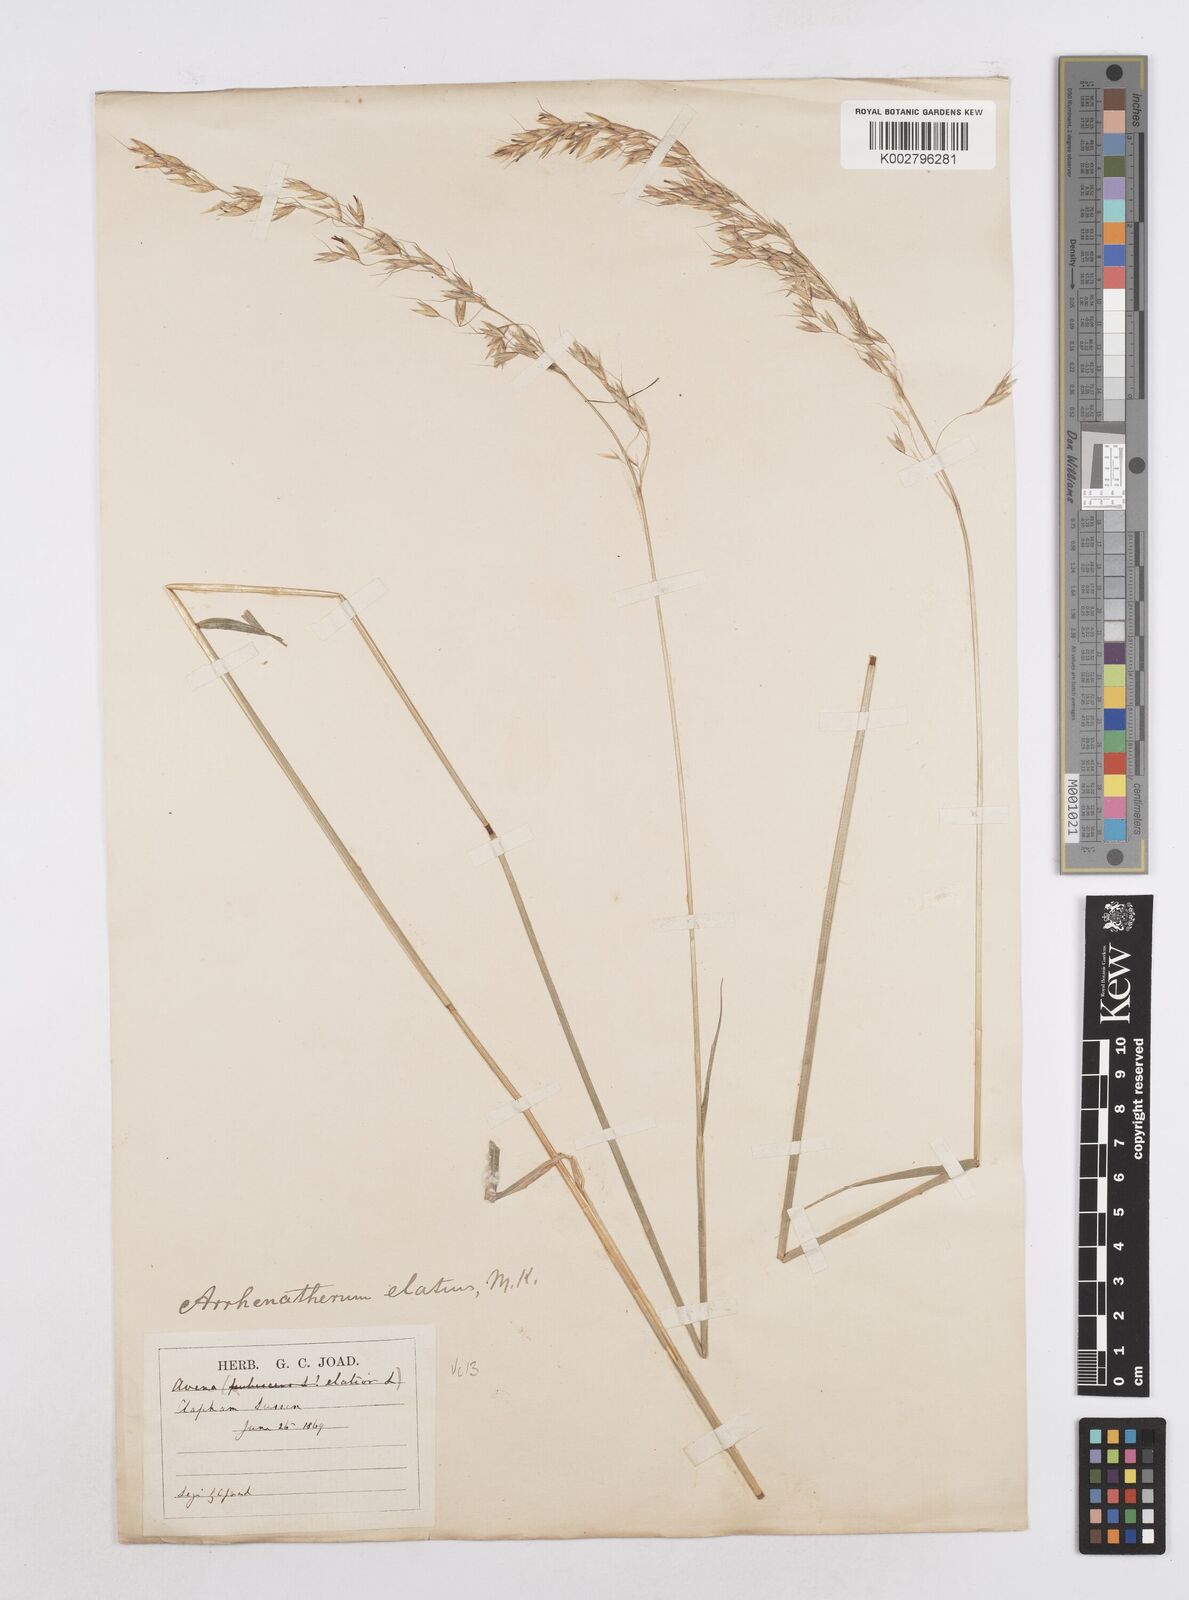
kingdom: Plantae
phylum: Tracheophyta
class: Liliopsida
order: Poales
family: Poaceae
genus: Arrhenatherum
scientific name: Arrhenatherum elatius
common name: Tall oatgrass
